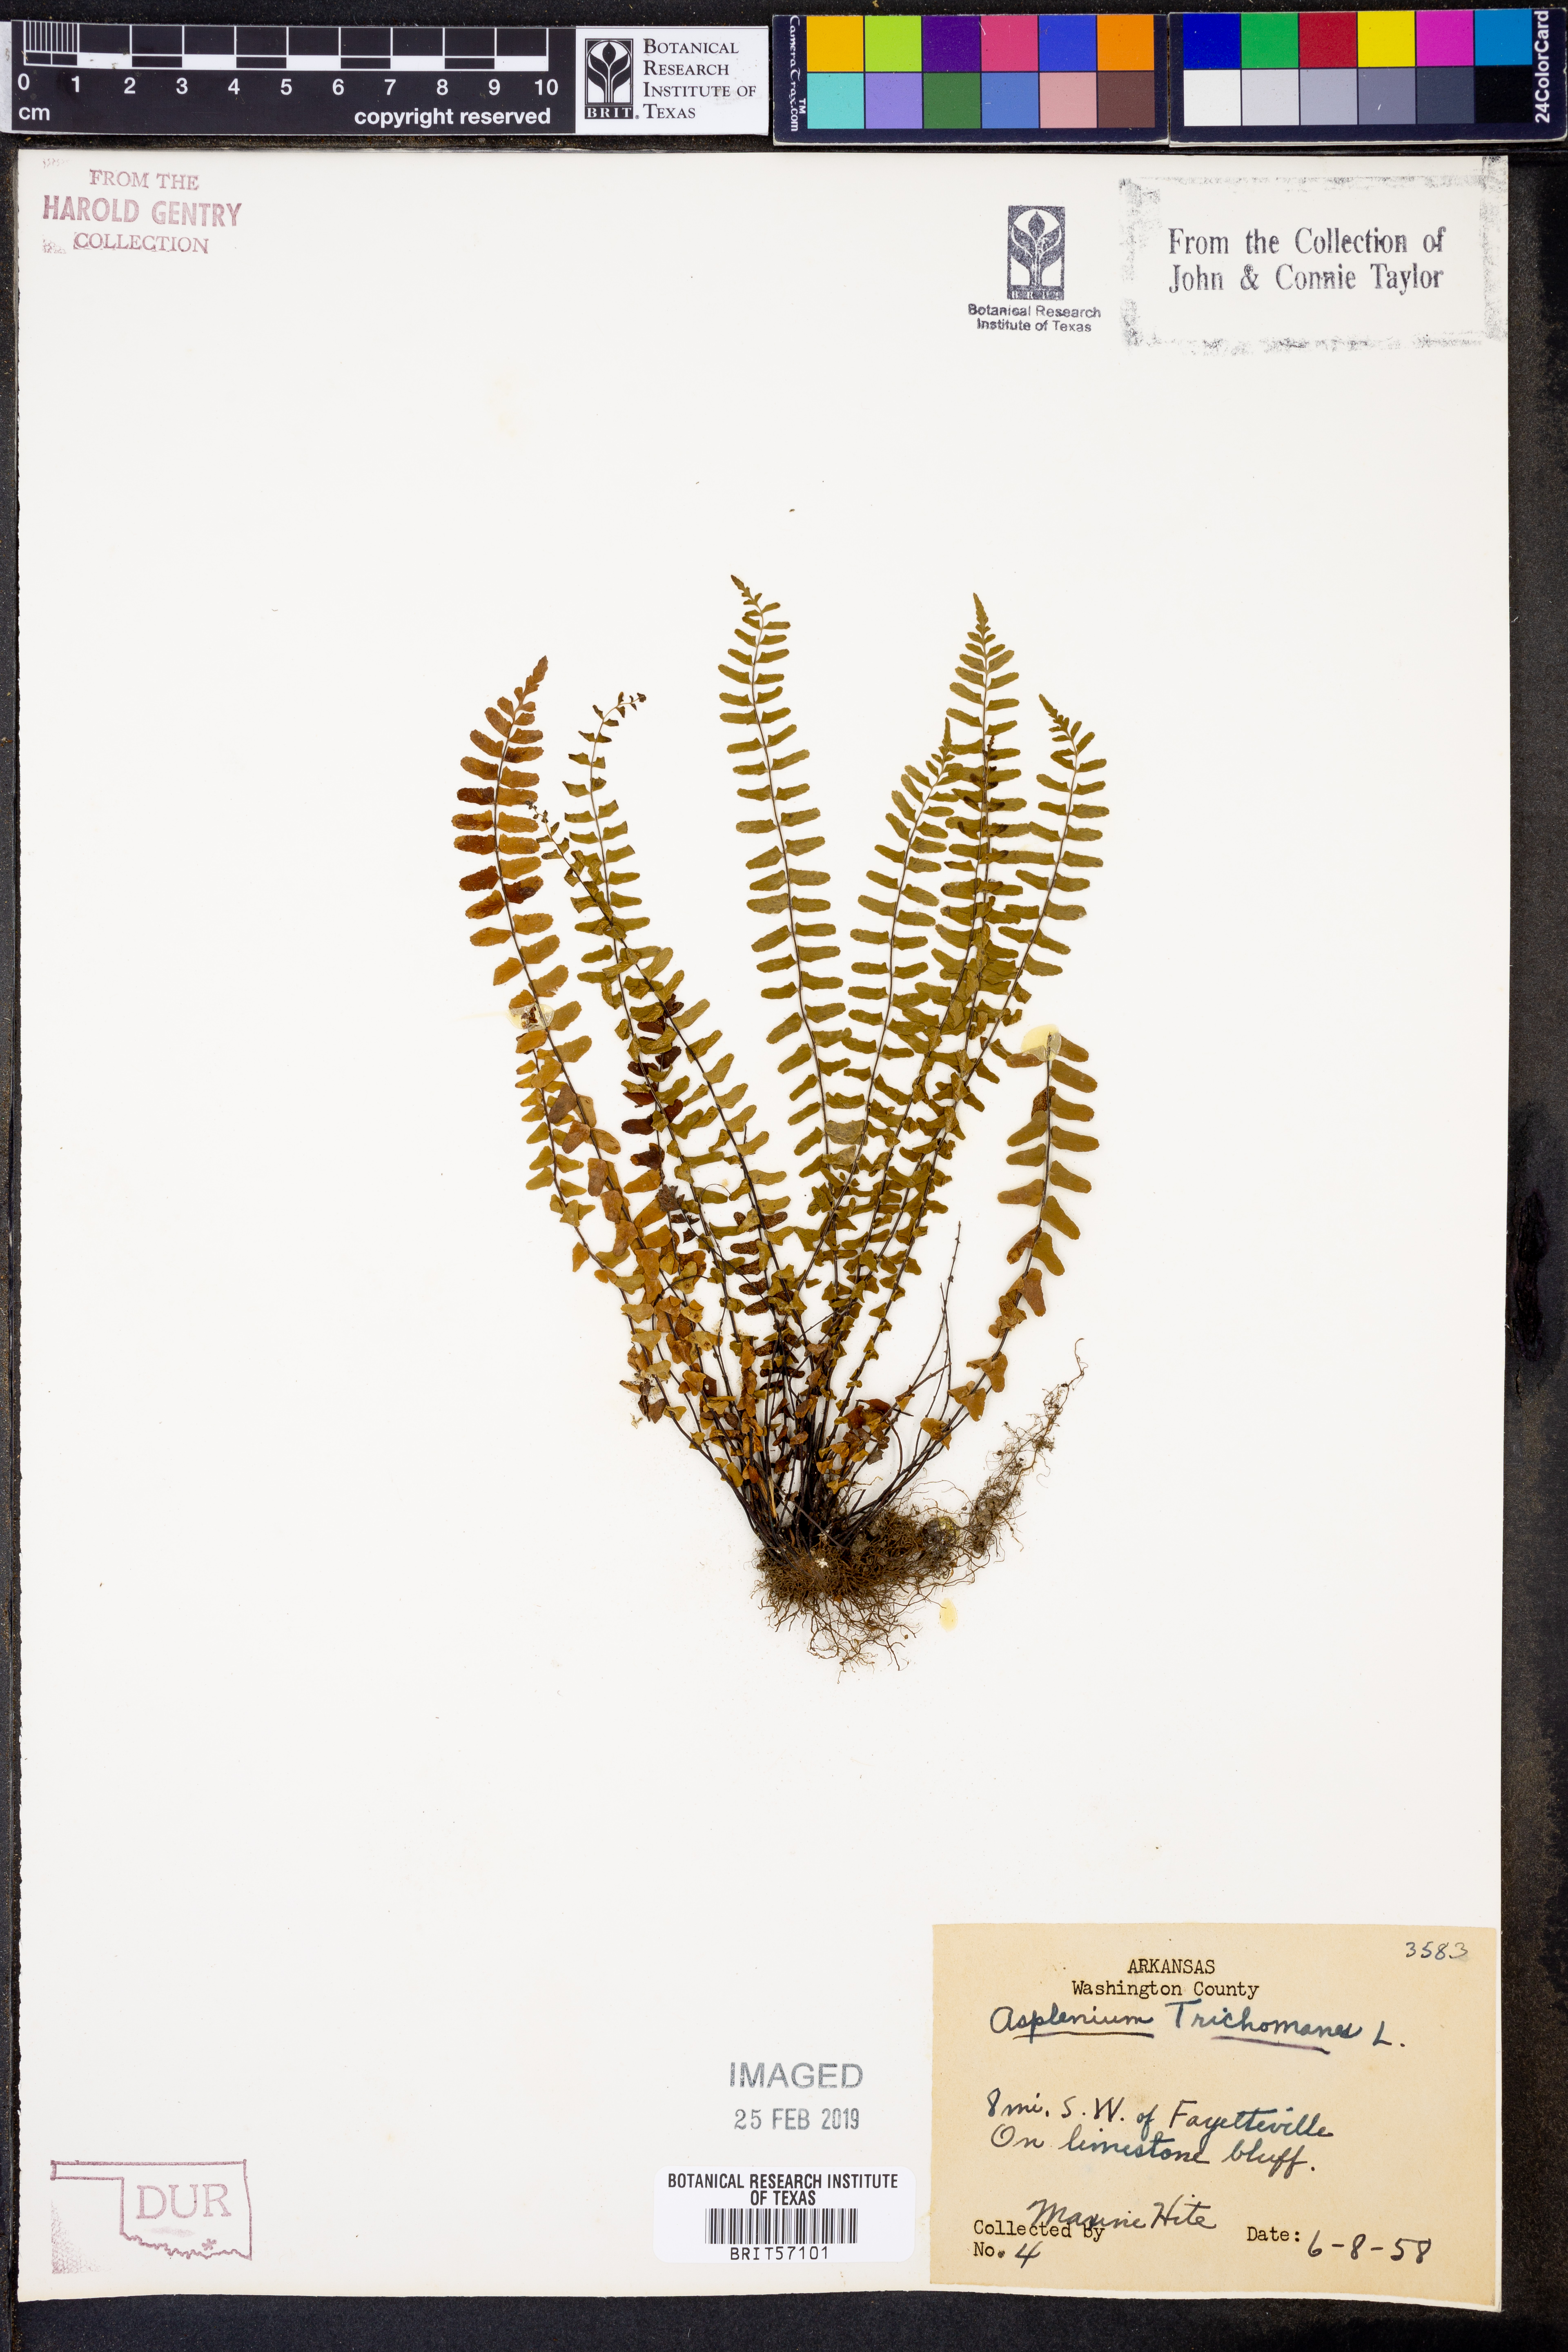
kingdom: Plantae
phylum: Tracheophyta
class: Polypodiopsida
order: Polypodiales
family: Aspleniaceae
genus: Asplenium
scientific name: Asplenium trichomanes
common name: Maidenhair spleenwort
